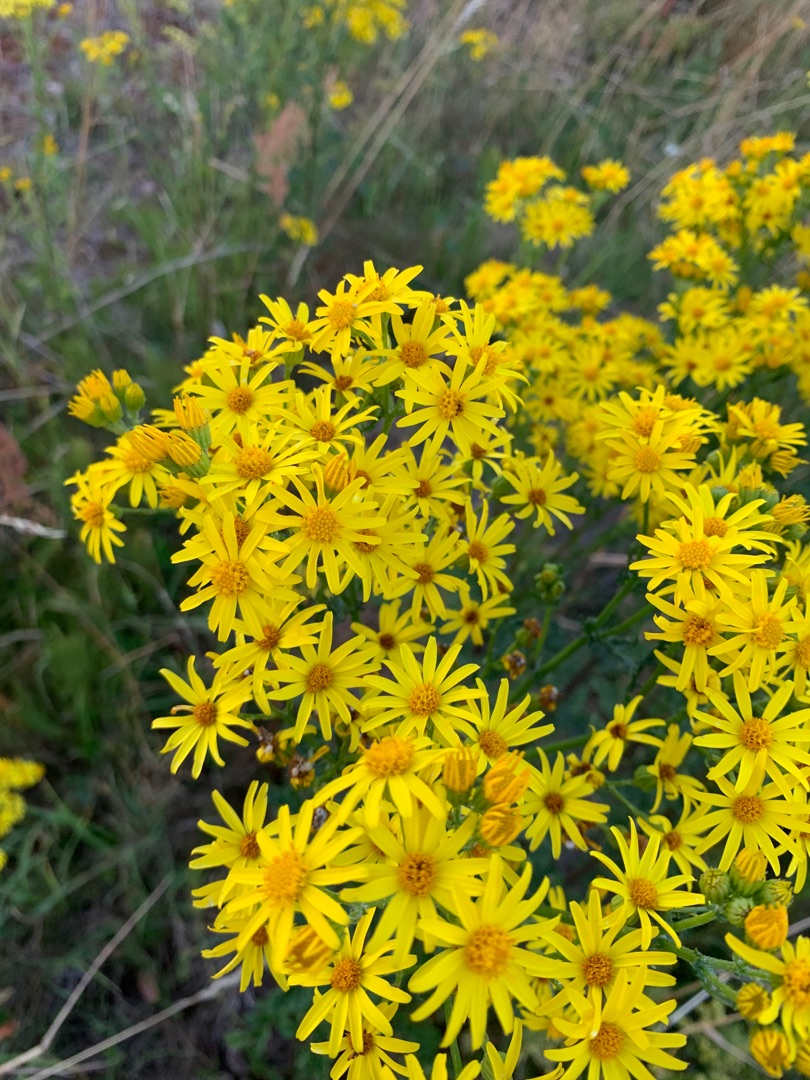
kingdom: Plantae
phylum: Tracheophyta
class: Magnoliopsida
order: Asterales
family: Asteraceae
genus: Jacobaea
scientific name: Jacobaea vulgaris
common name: Eng-brandbæger
